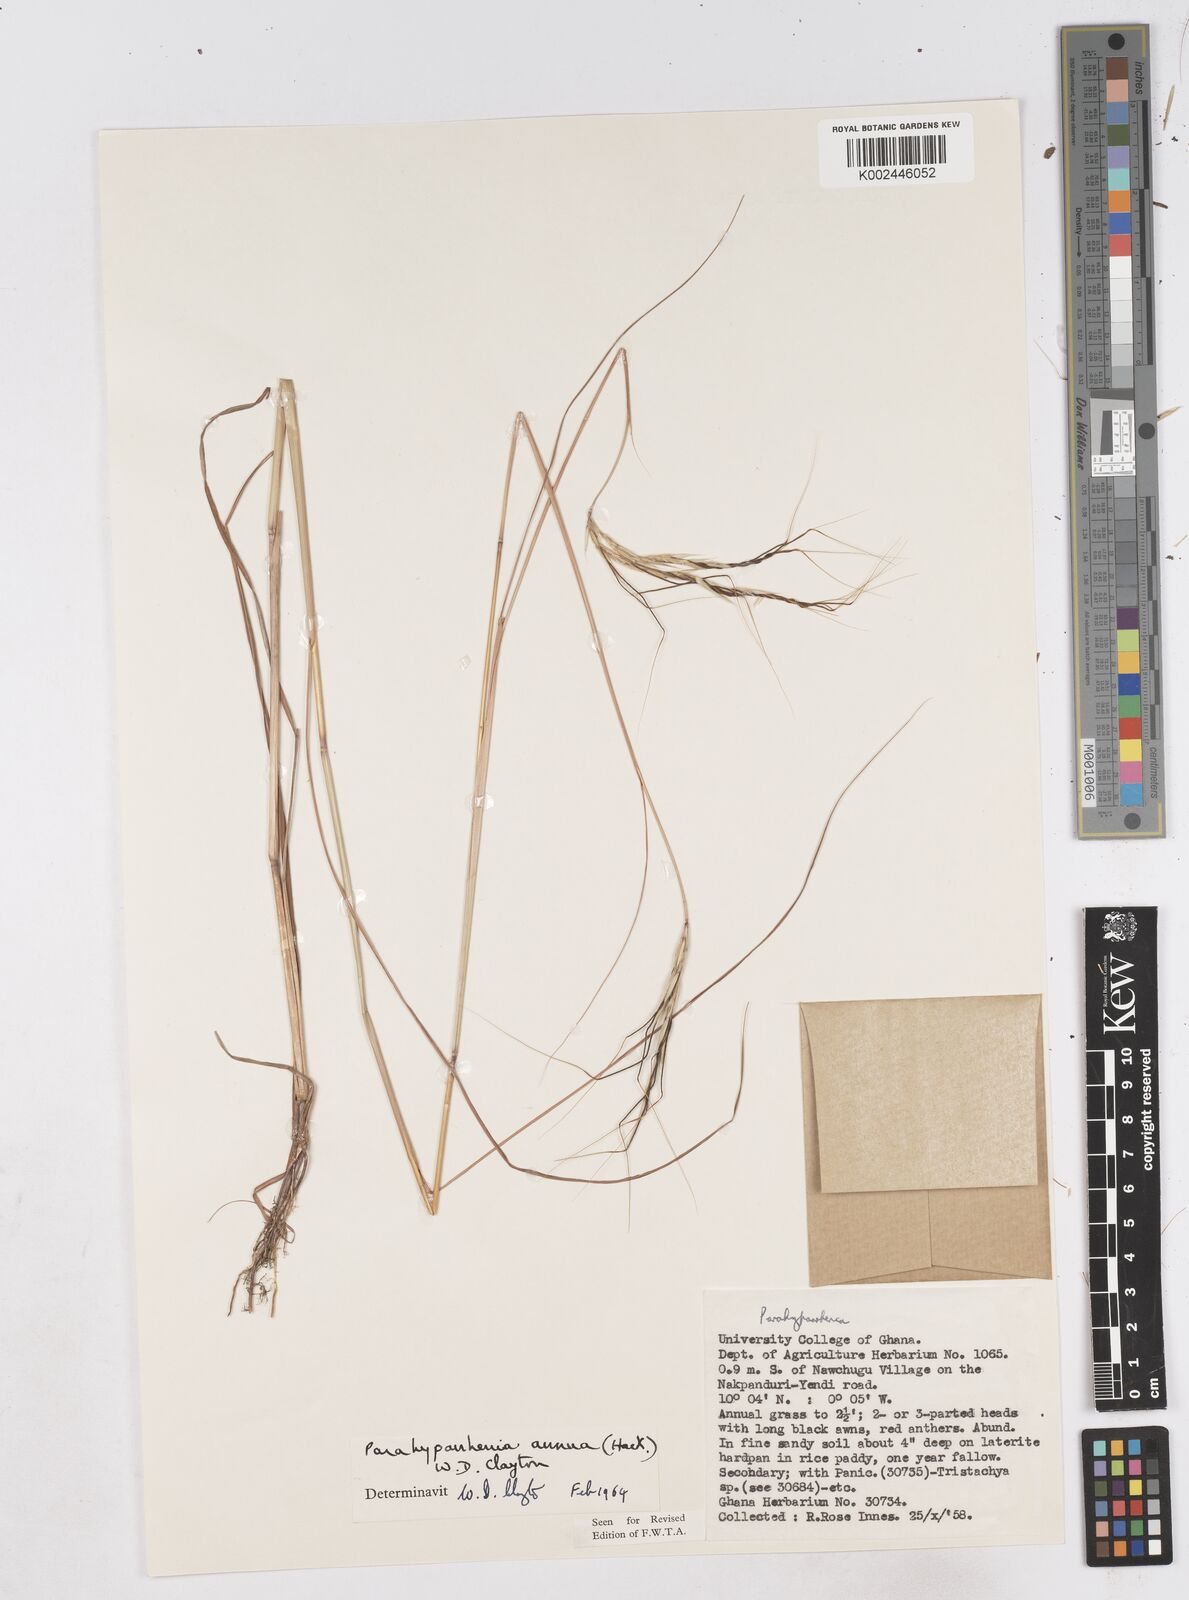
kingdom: Plantae
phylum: Tracheophyta
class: Liliopsida
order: Poales
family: Poaceae
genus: Parahyparrhenia
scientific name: Parahyparrhenia annua
